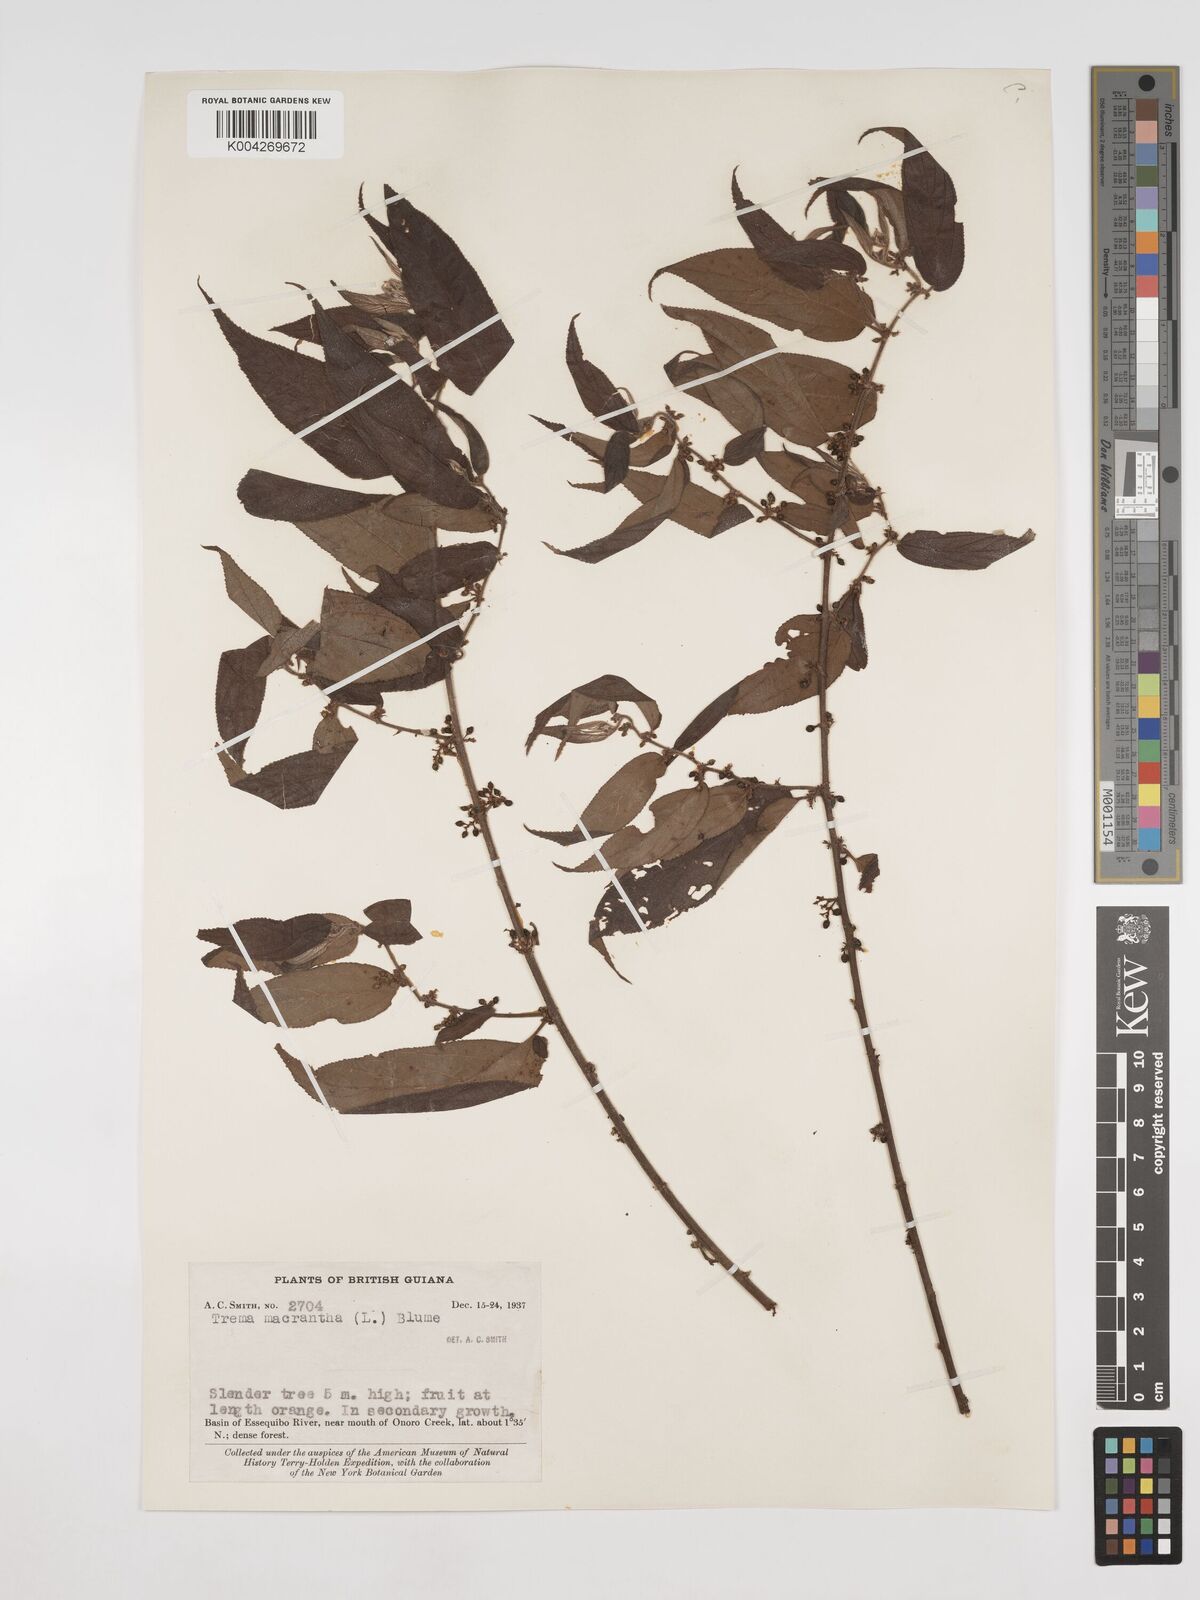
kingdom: Plantae
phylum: Tracheophyta
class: Magnoliopsida
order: Rosales
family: Cannabaceae
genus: Trema
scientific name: Trema micranthum
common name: Jamaican nettletree
